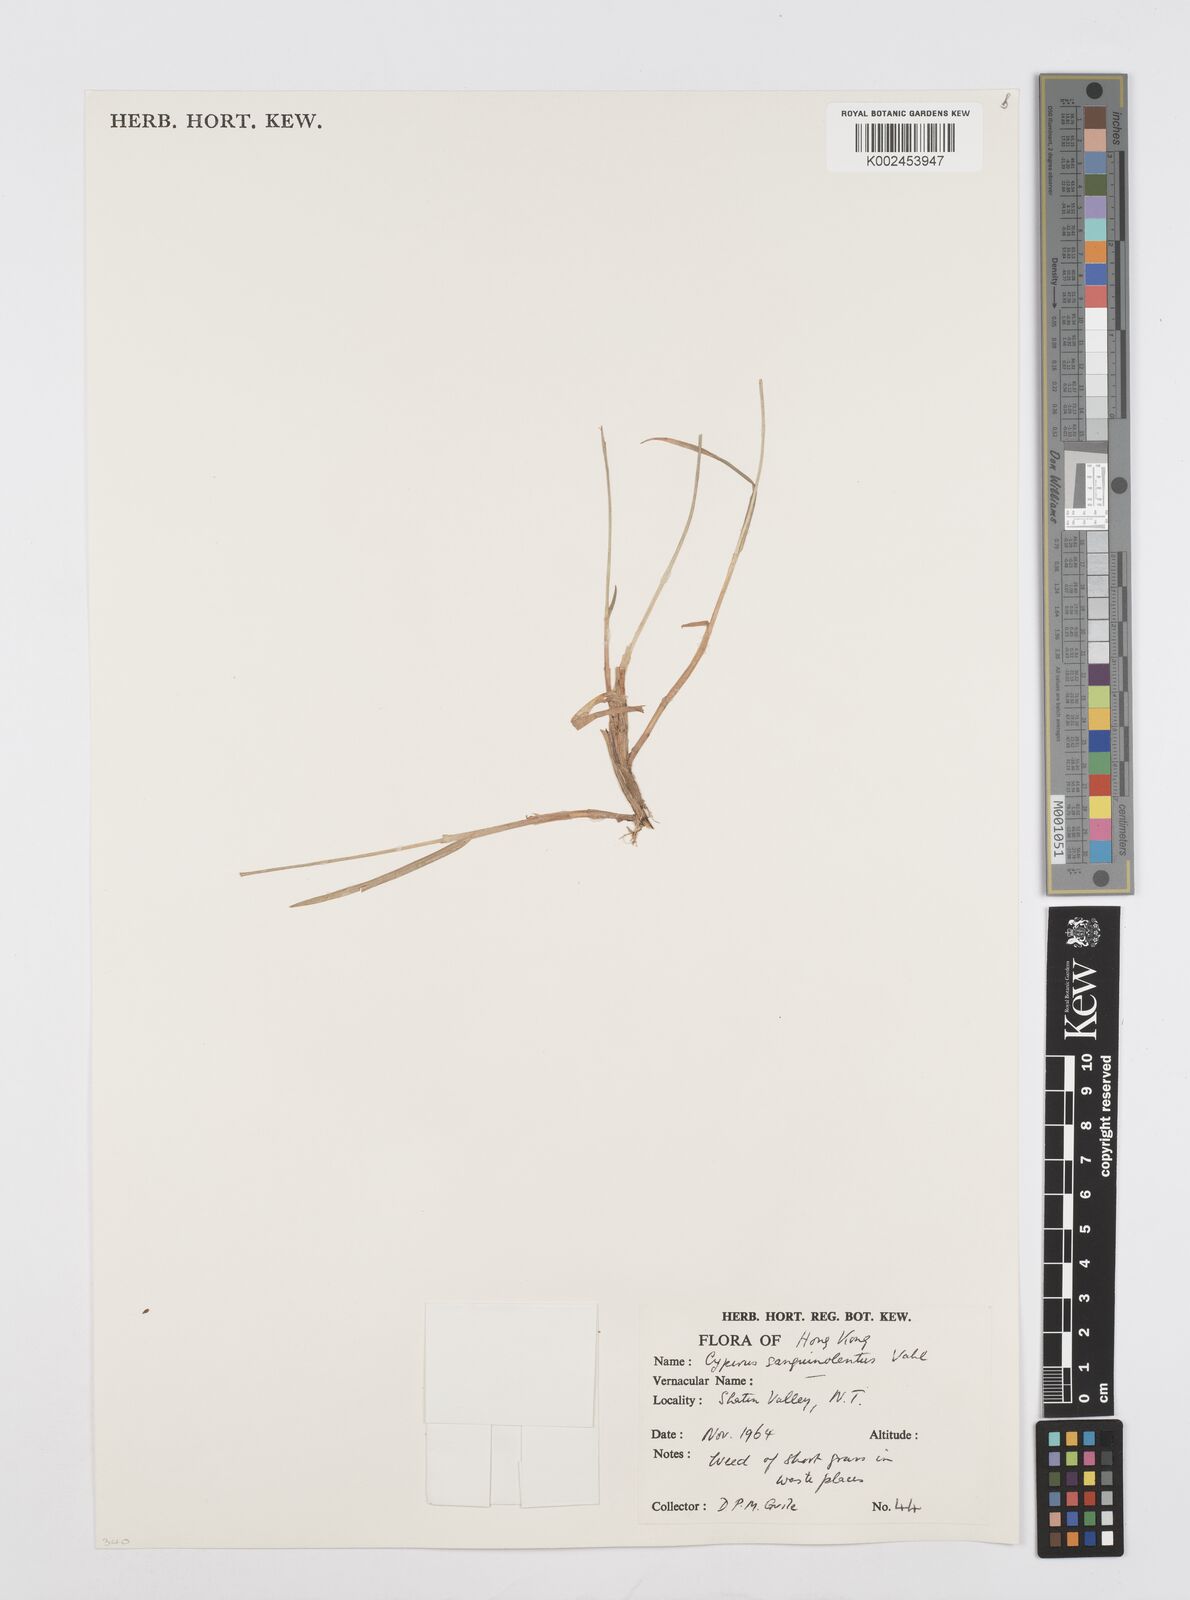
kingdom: Plantae
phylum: Tracheophyta
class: Liliopsida
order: Poales
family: Cyperaceae
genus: Cyperus
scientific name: Cyperus sanguinolentus
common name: Purpleglume flatsedge
